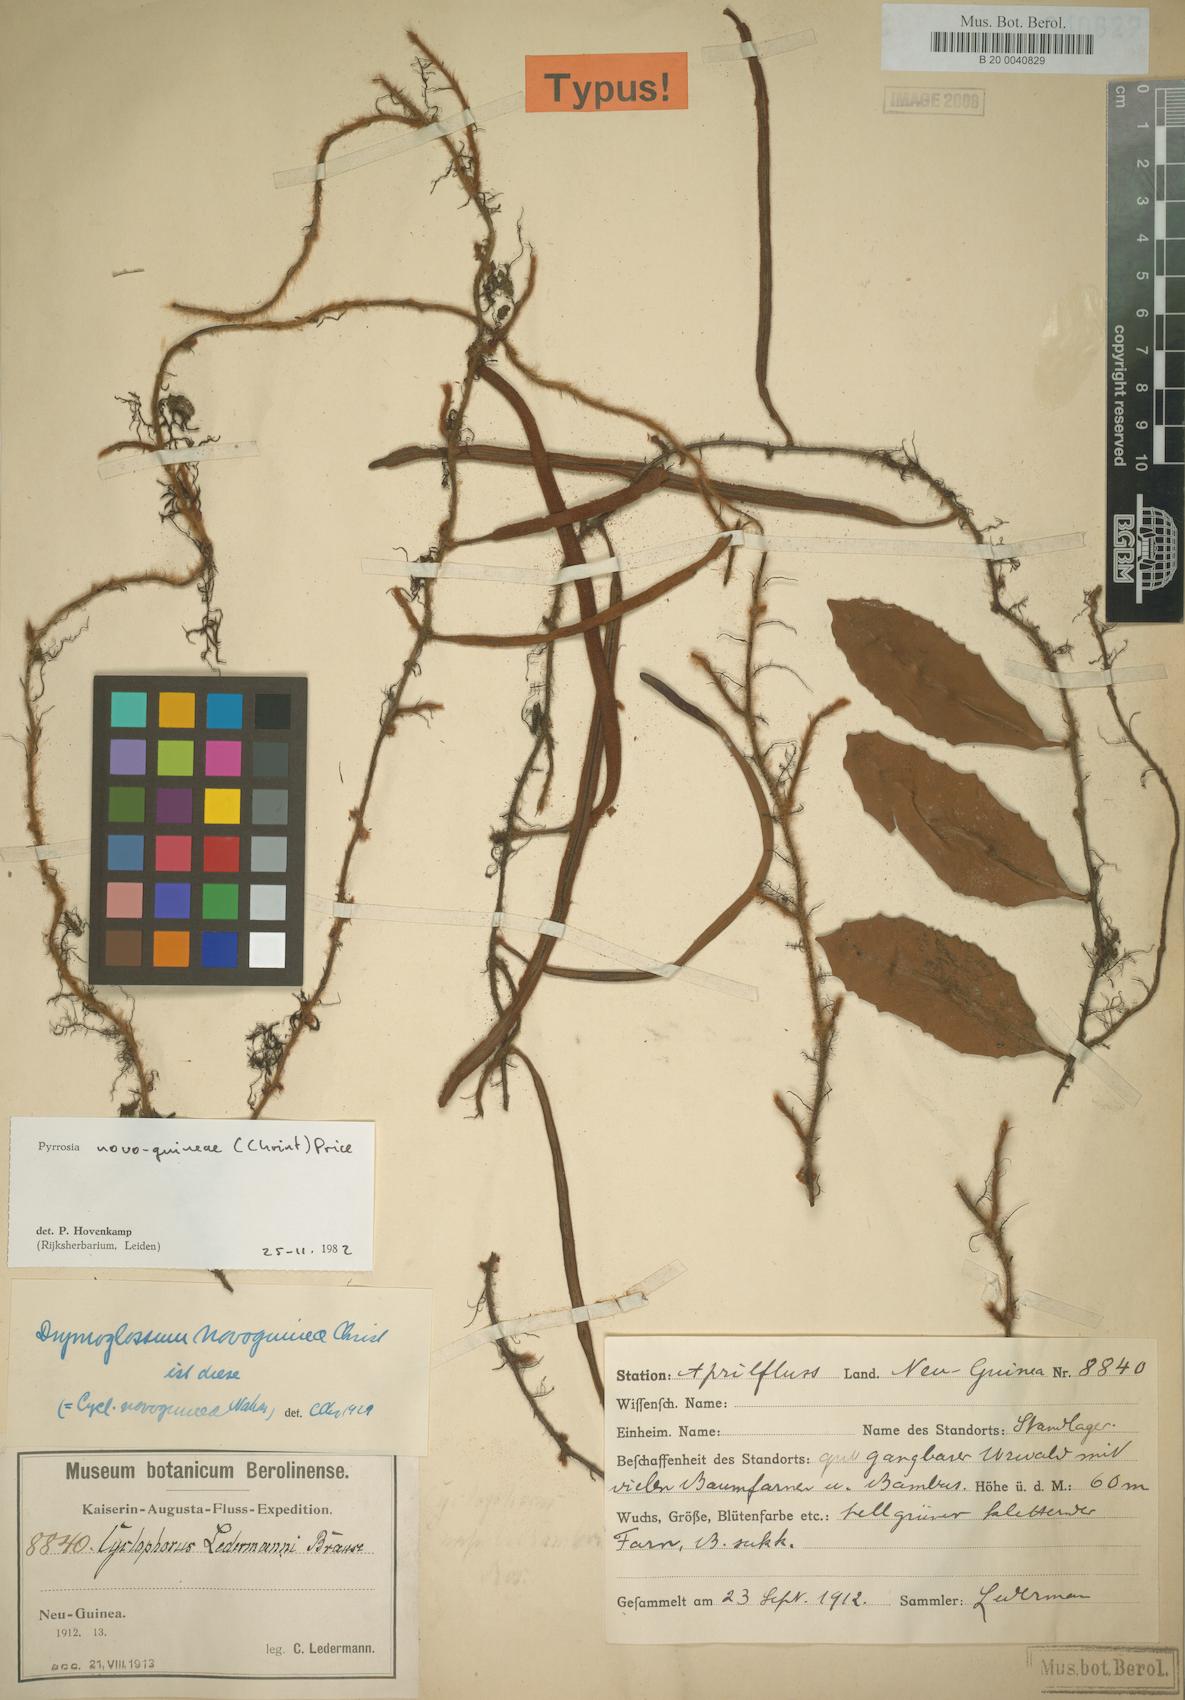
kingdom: Plantae
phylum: Tracheophyta
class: Polypodiopsida
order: Polypodiales
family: Polypodiaceae
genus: Pyrrosia
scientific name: Pyrrosia novoguineae
